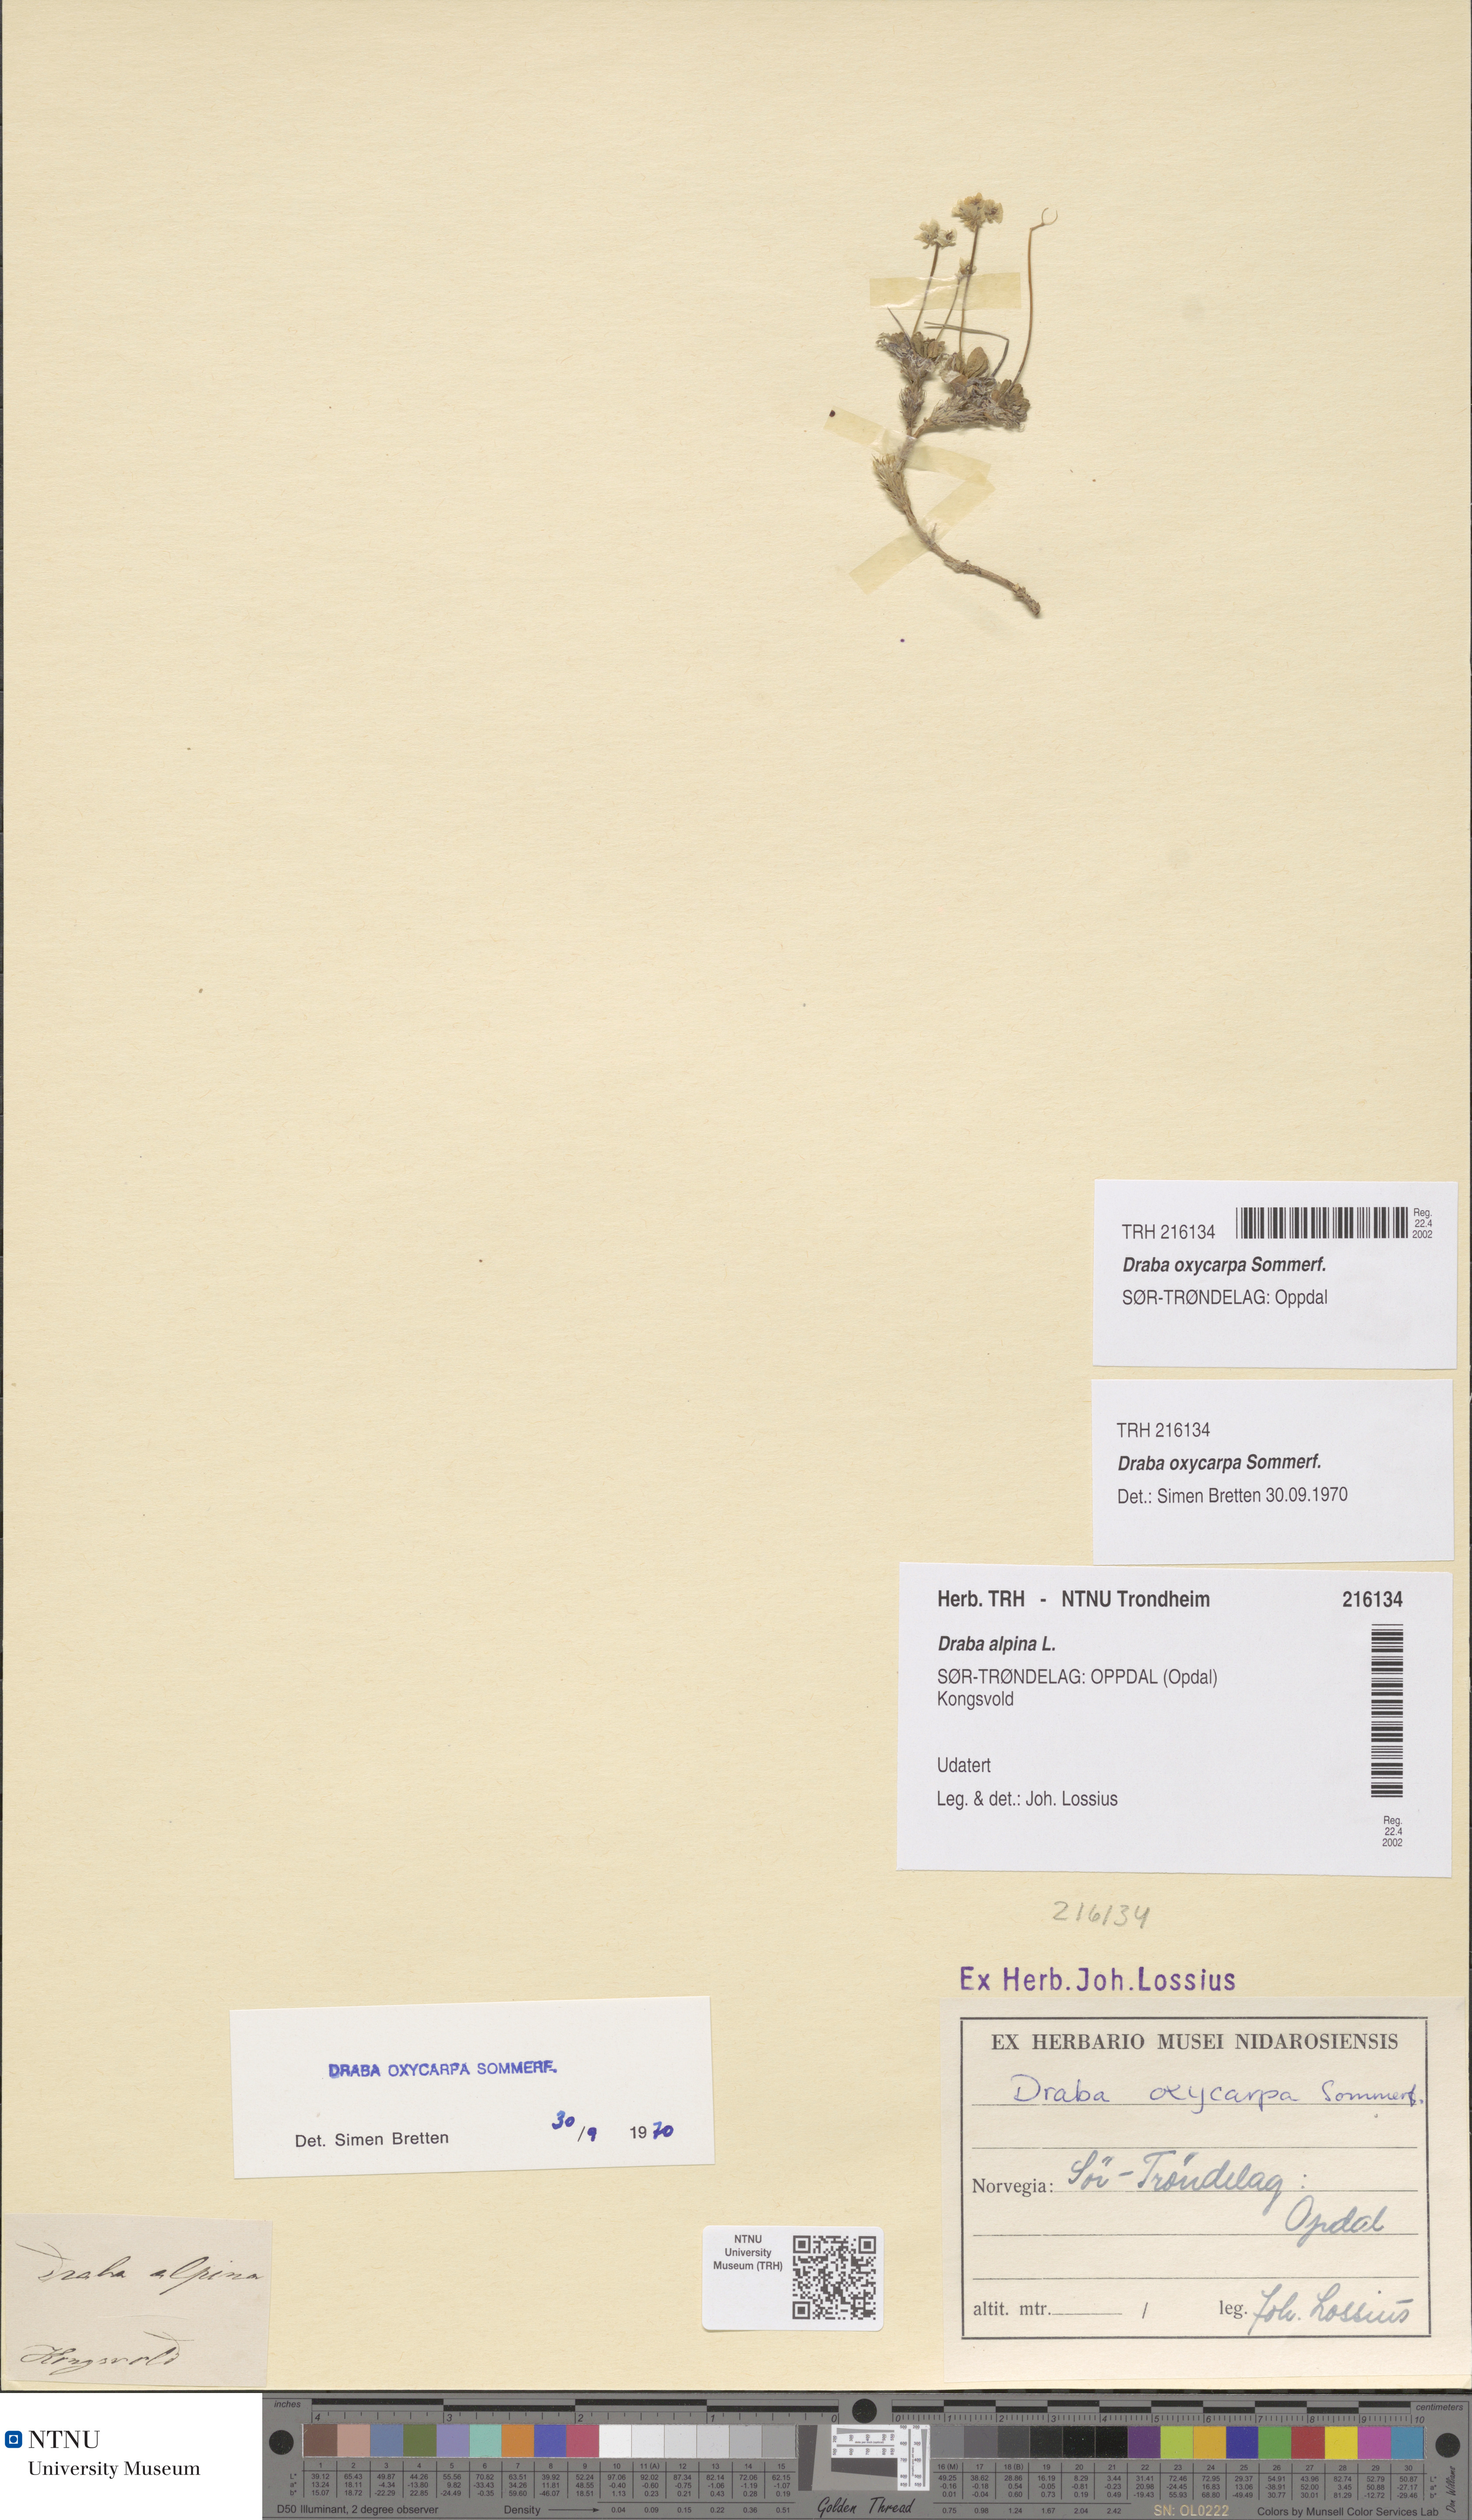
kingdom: Plantae
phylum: Tracheophyta
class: Magnoliopsida
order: Brassicales
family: Brassicaceae
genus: Draba
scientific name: Draba oxycarpa
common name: Sharp-fruited whitlow-grass
